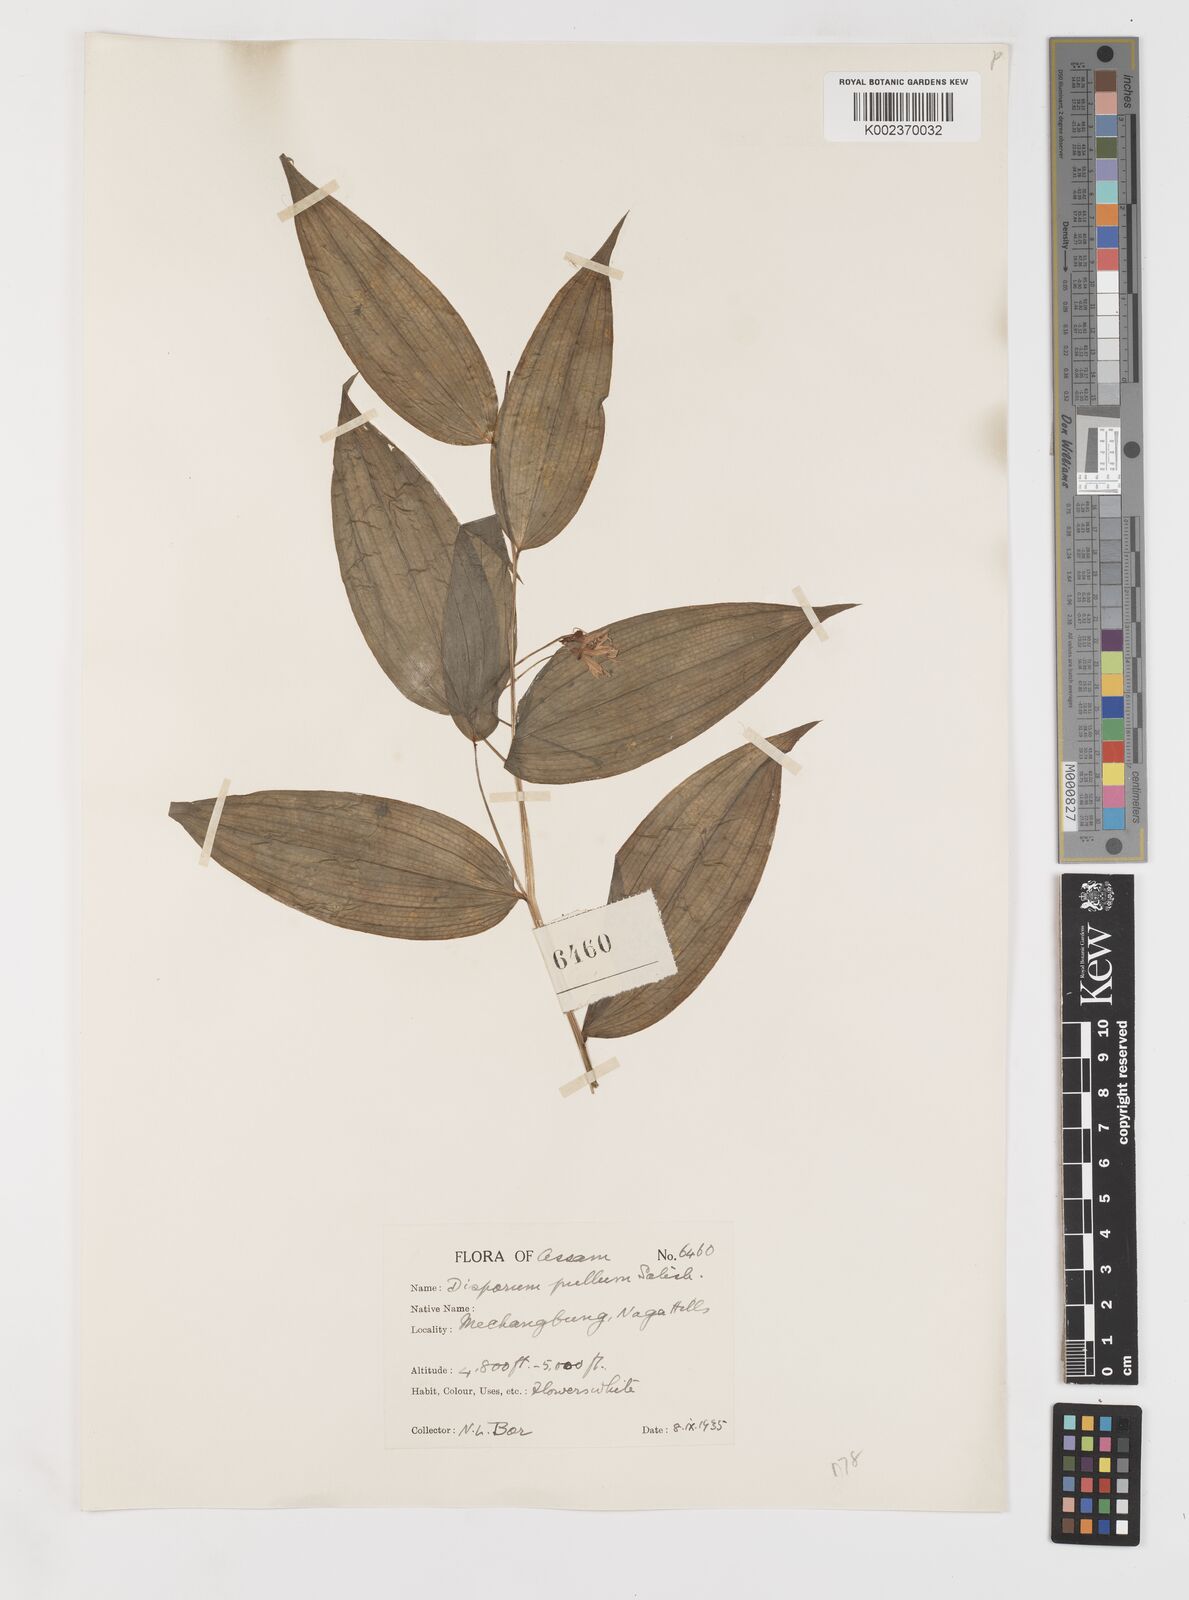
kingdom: Plantae
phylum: Tracheophyta
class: Liliopsida
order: Liliales
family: Colchicaceae
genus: Disporum
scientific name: Disporum cantoniense
